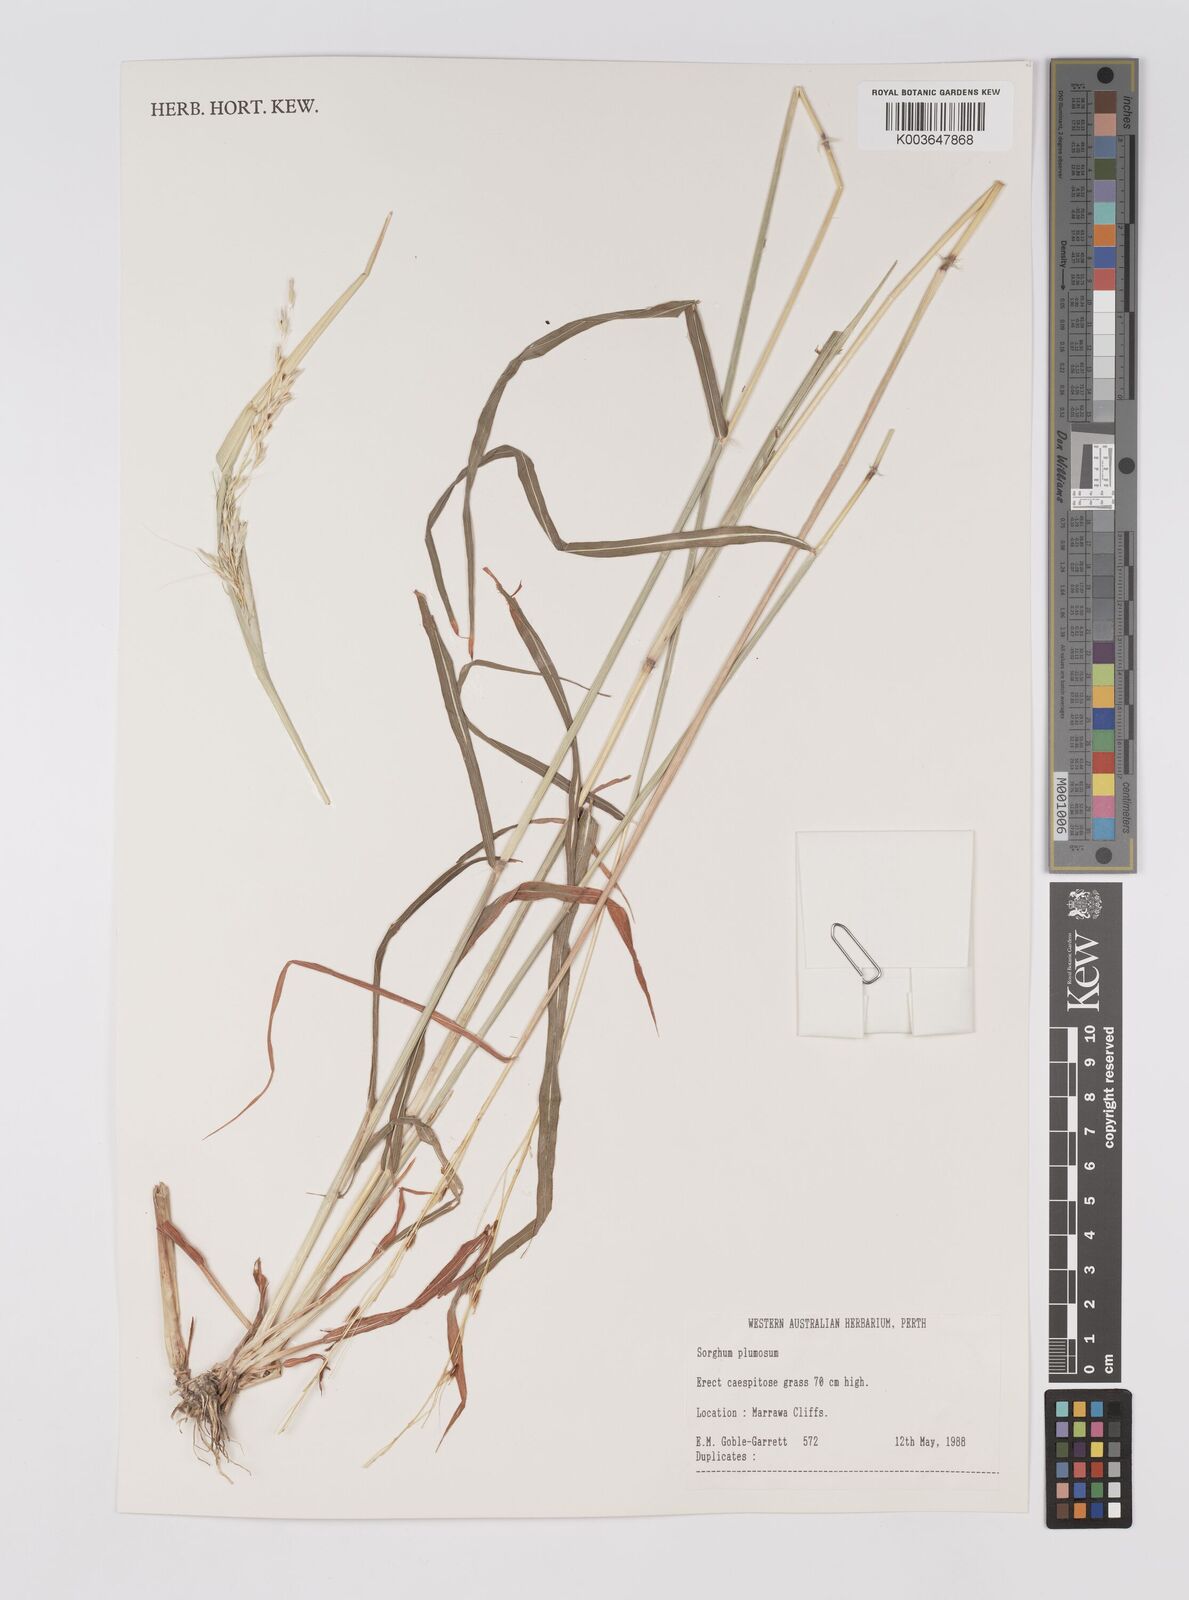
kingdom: Plantae
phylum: Tracheophyta
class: Liliopsida
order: Poales
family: Poaceae
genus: Sarga
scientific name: Sarga plumosa
